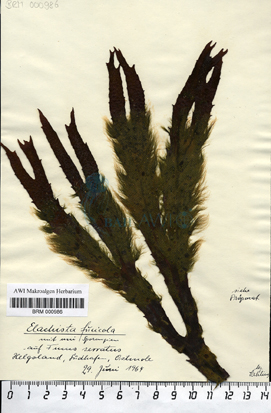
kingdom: Chromista
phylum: Ochrophyta
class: Phaeophyceae
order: Ectocarpales
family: Chordariaceae
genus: Elachista
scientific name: Elachista fucicola
